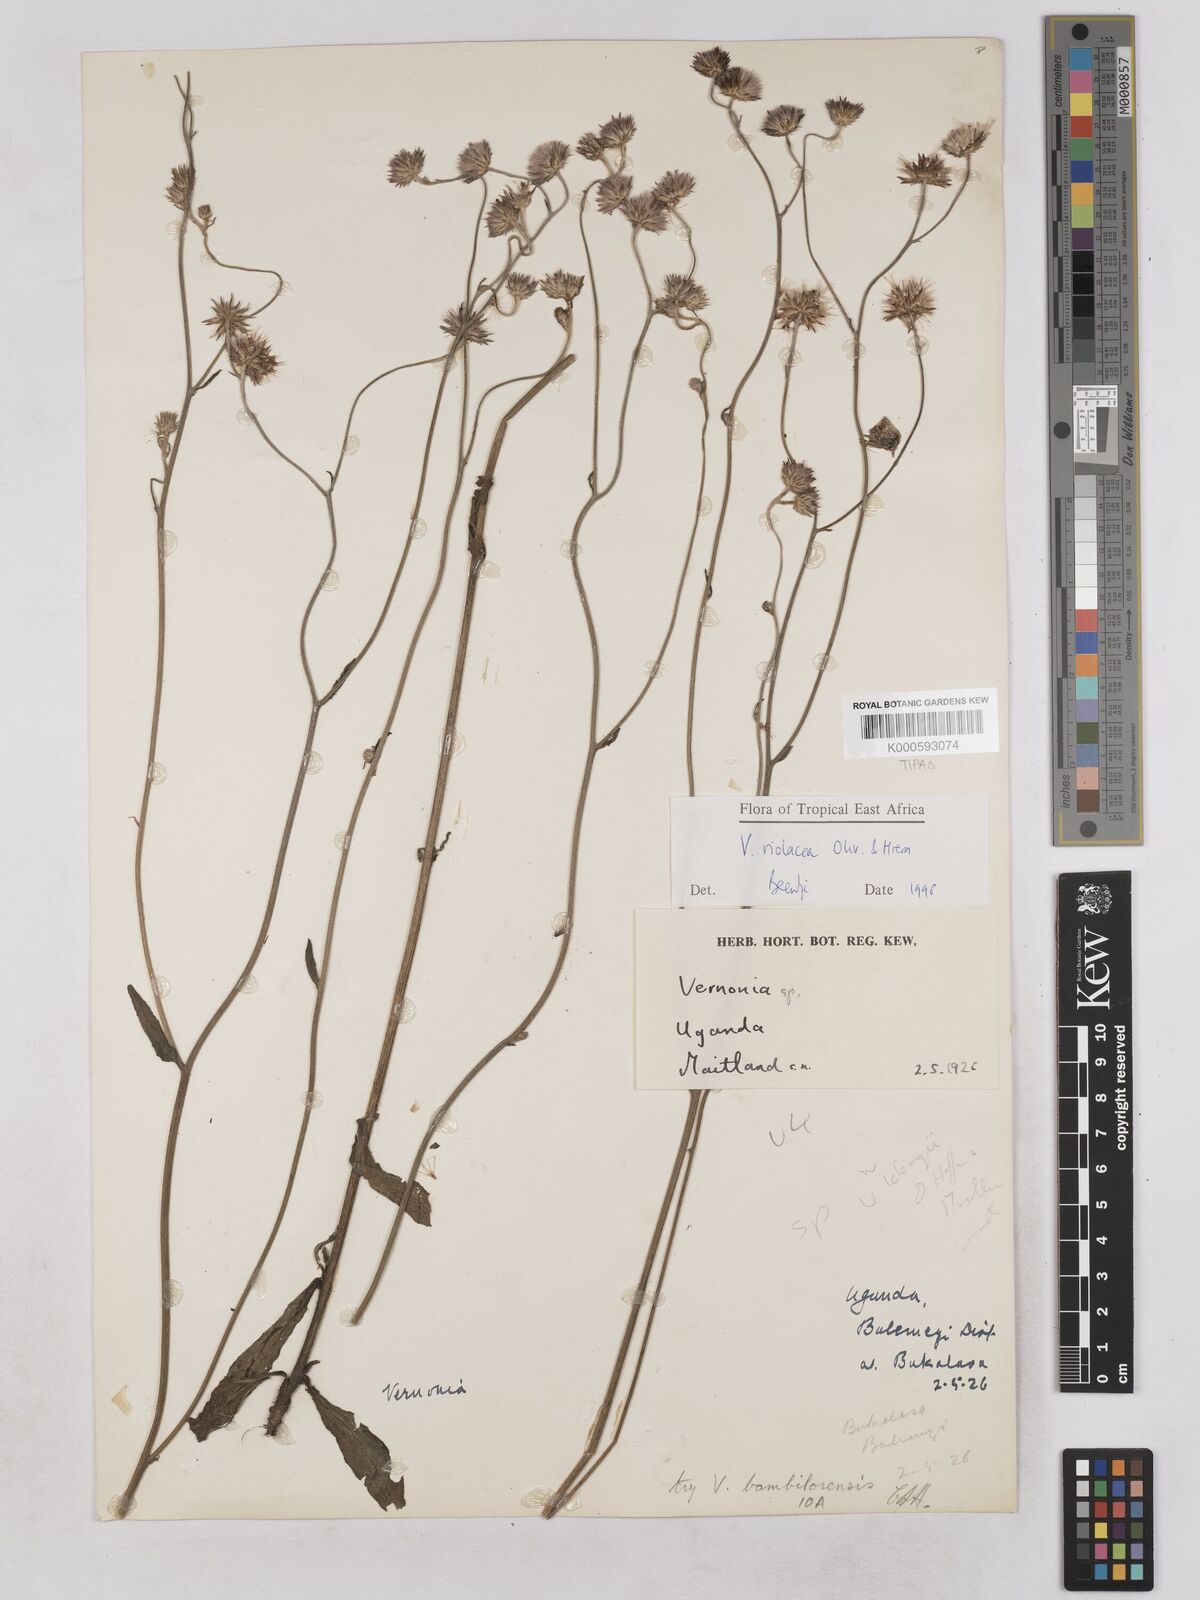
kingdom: Plantae
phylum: Tracheophyta
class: Magnoliopsida
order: Asterales
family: Asteraceae
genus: Vernonia
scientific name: Vernonia violacea
